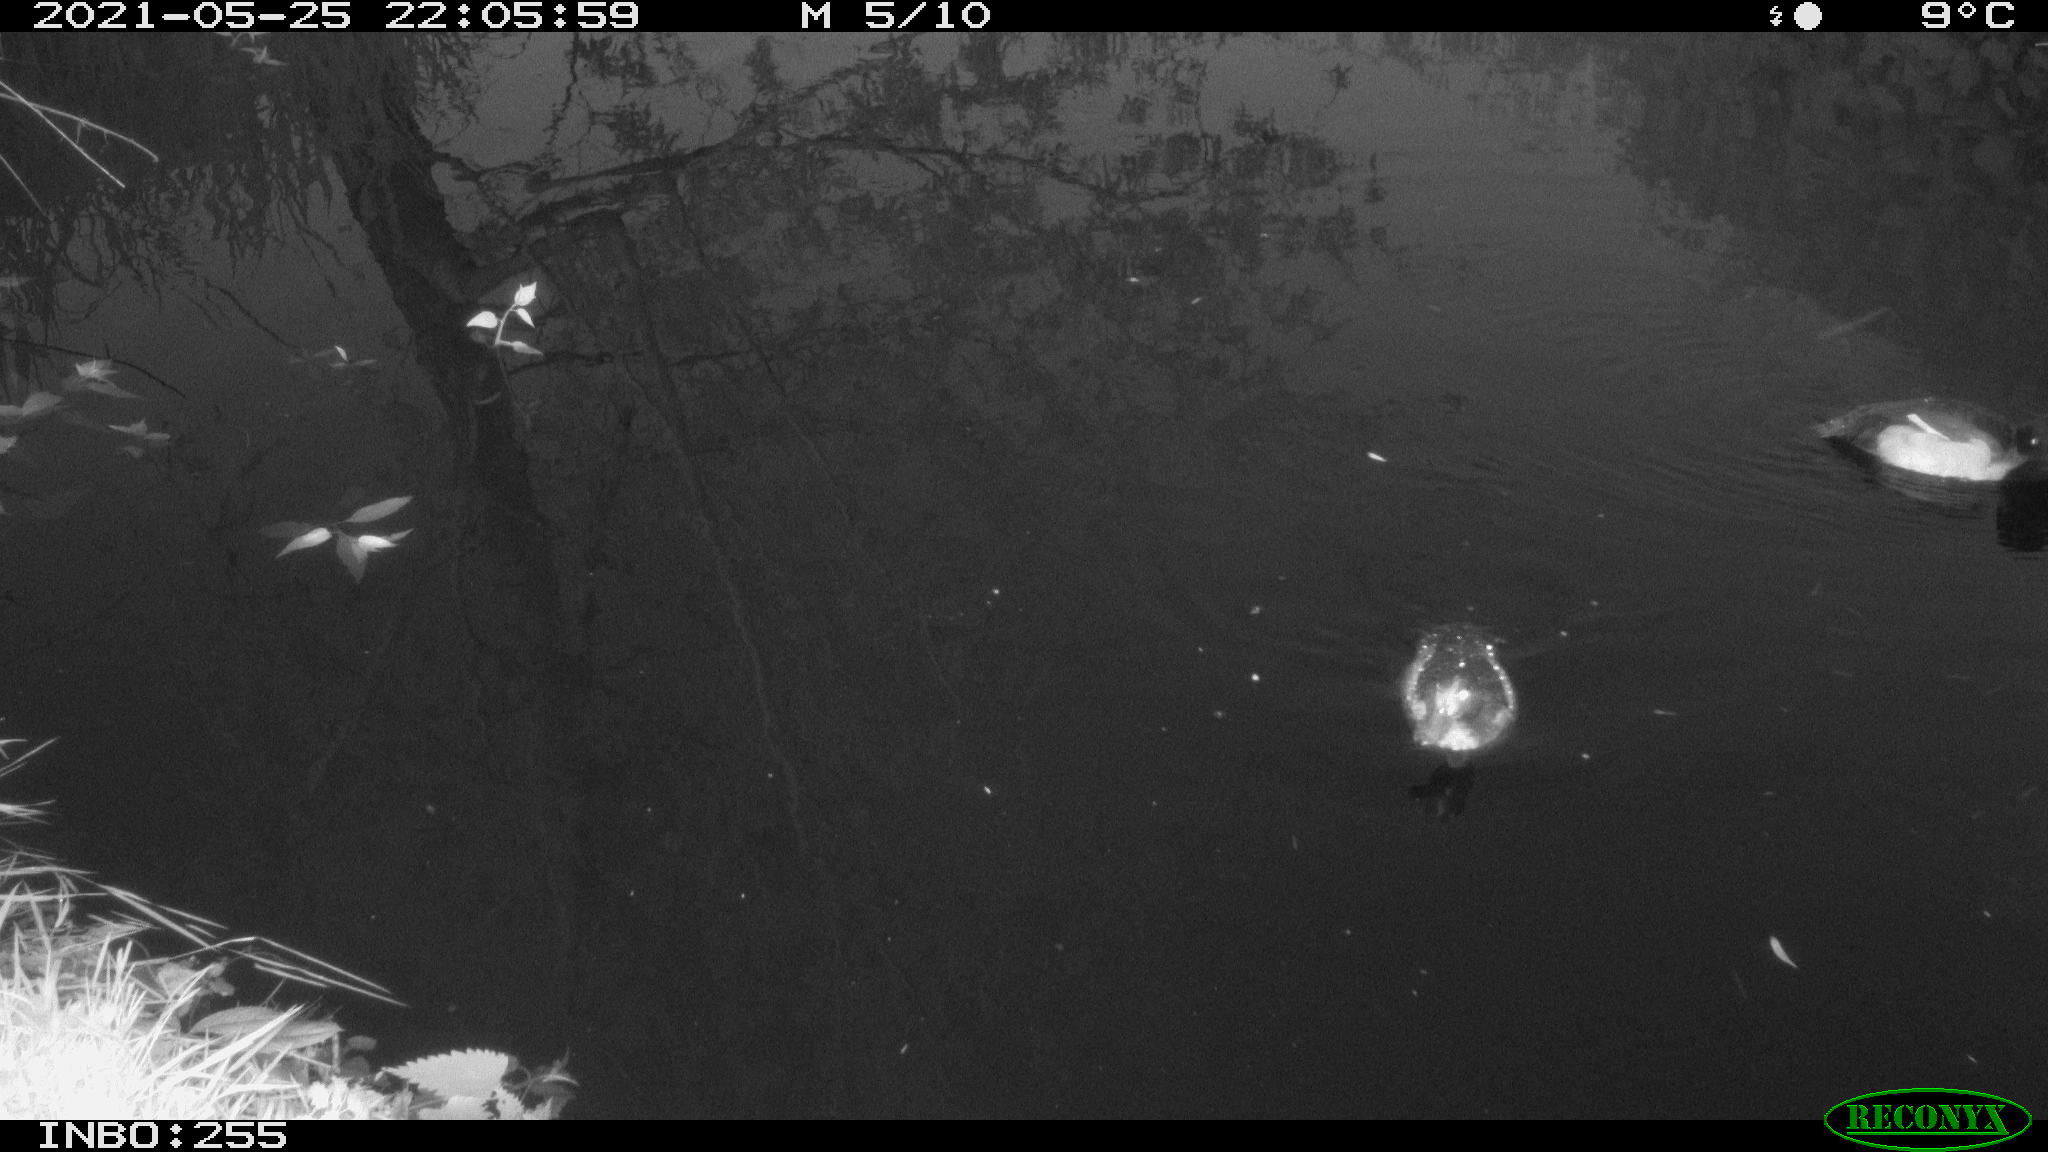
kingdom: Animalia
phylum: Chordata
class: Aves
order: Anseriformes
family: Anatidae
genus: Anas
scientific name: Anas
